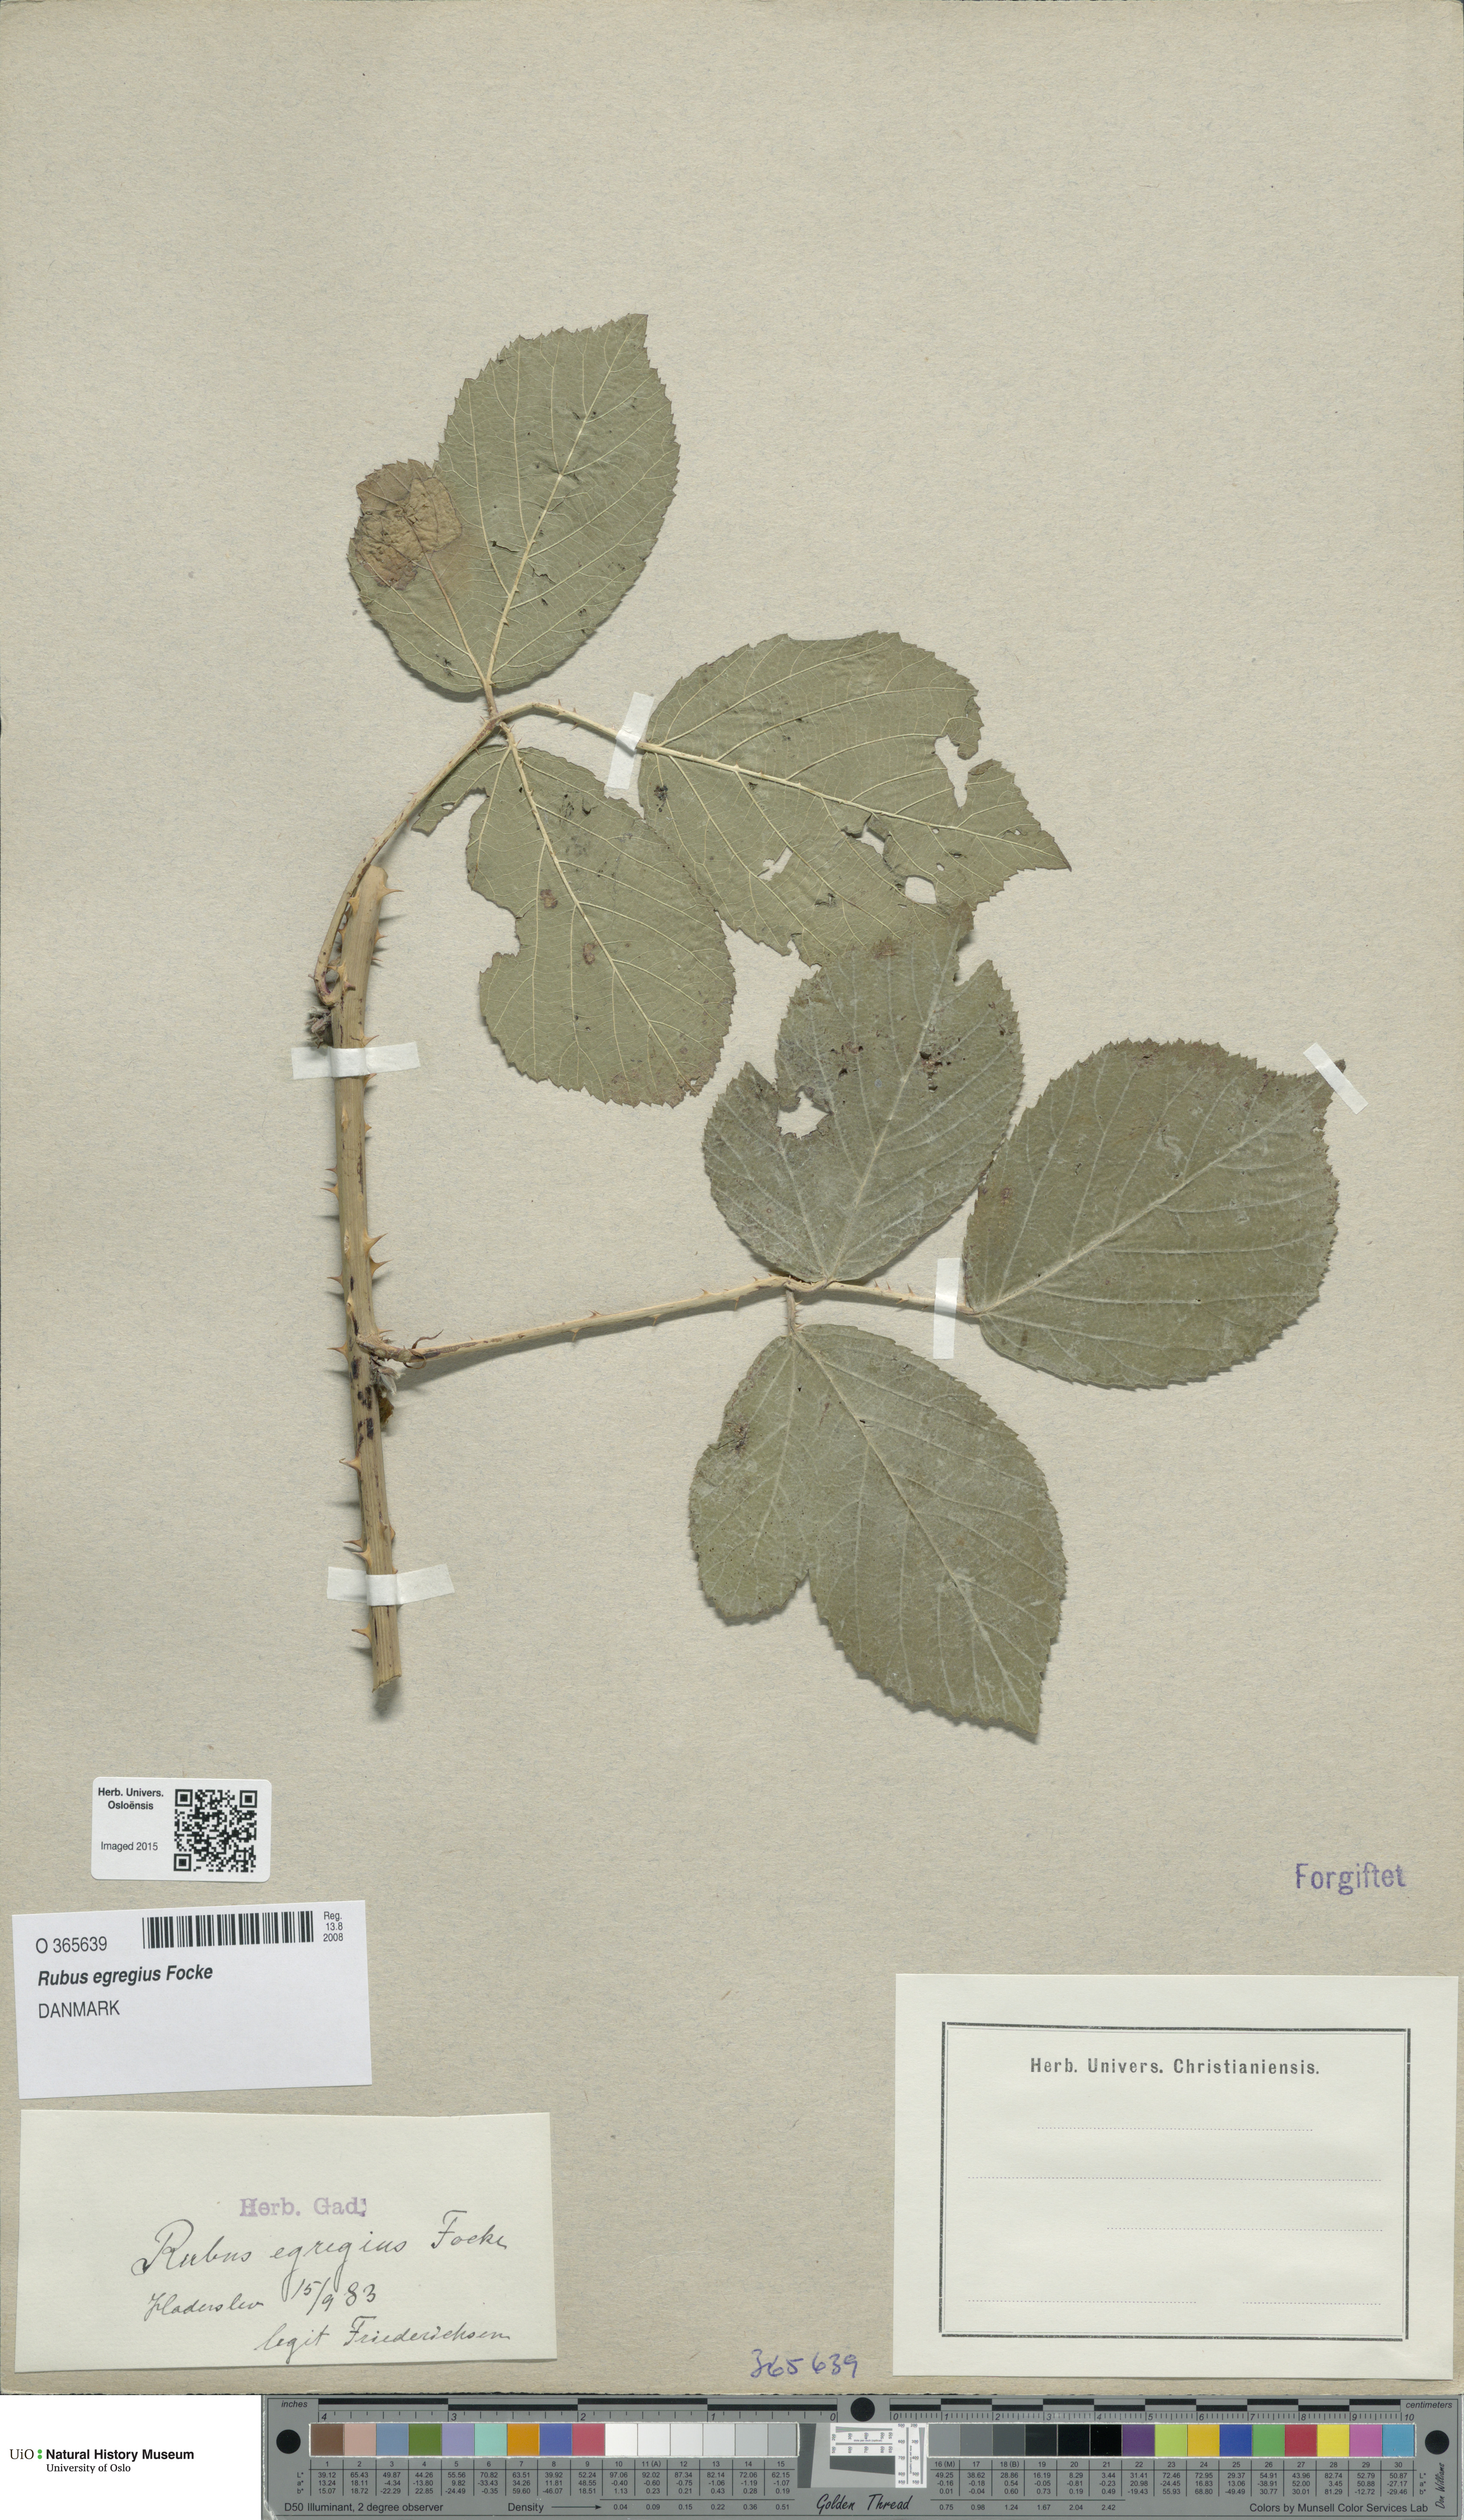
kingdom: Plantae
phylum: Tracheophyta
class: Magnoliopsida
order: Rosales
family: Rosaceae
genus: Rubus
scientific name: Rubus egregius
